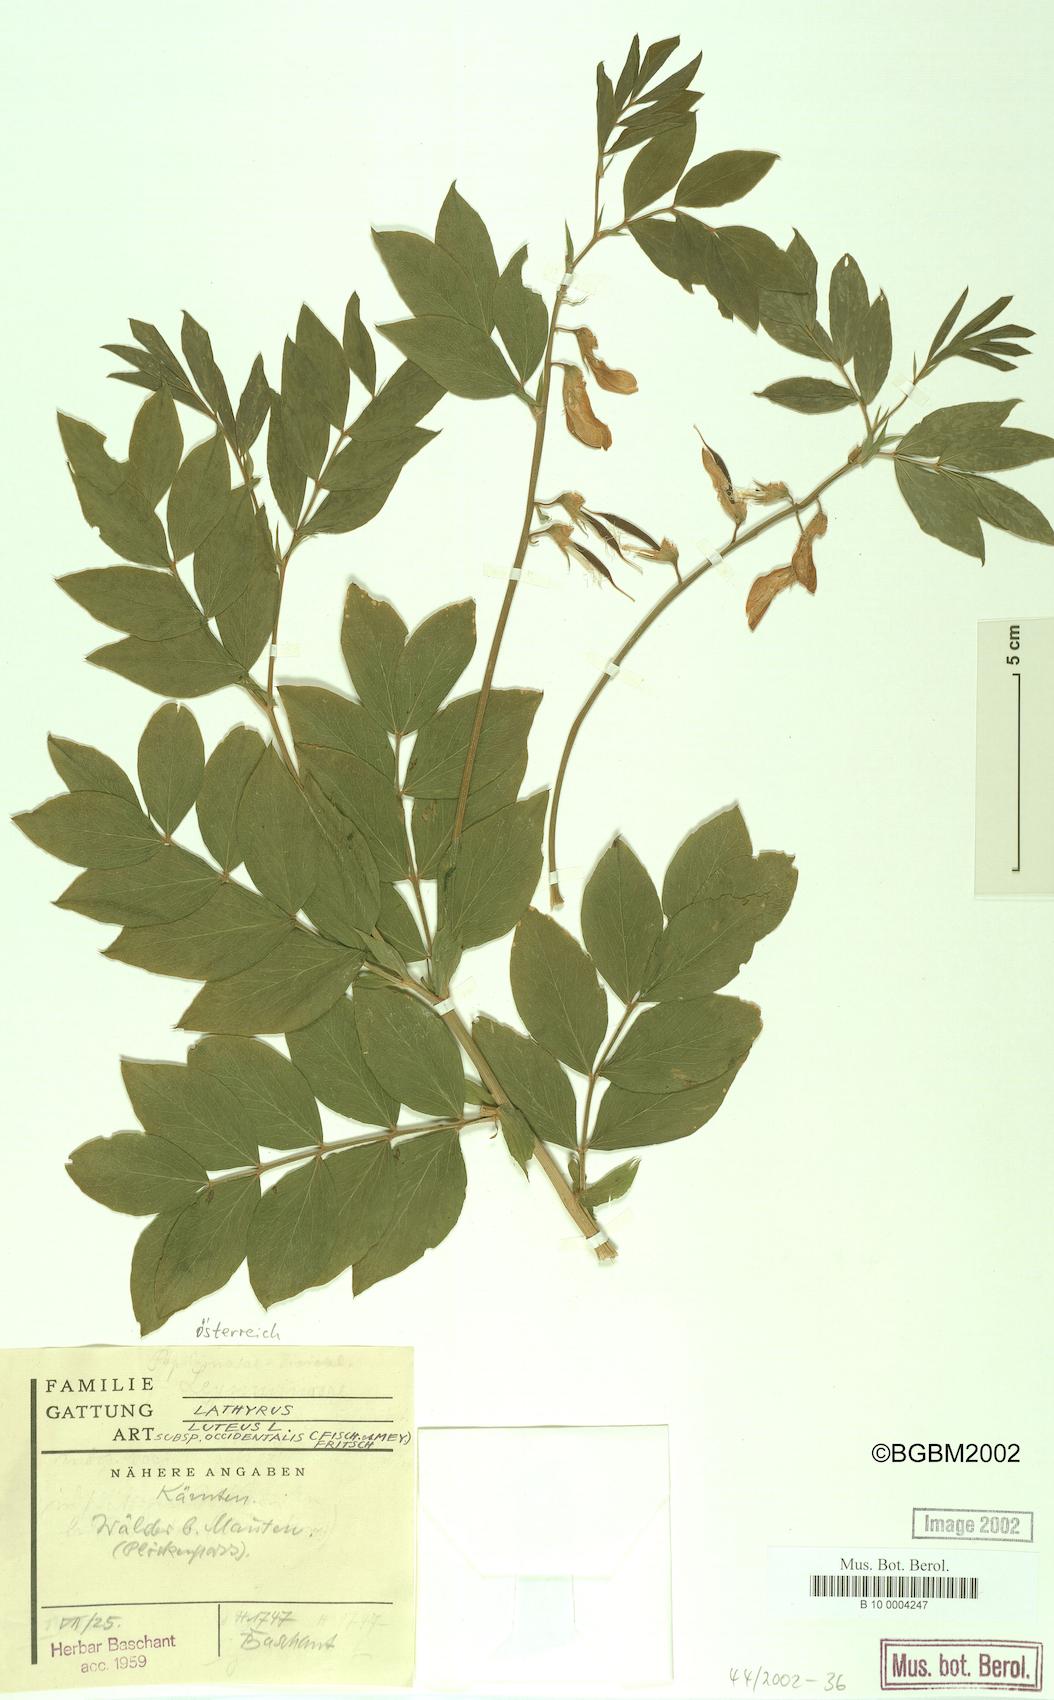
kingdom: Plantae
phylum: Tracheophyta
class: Magnoliopsida
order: Fabales
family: Fabaceae
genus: Lathyrus
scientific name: Lathyrus gmelinii
